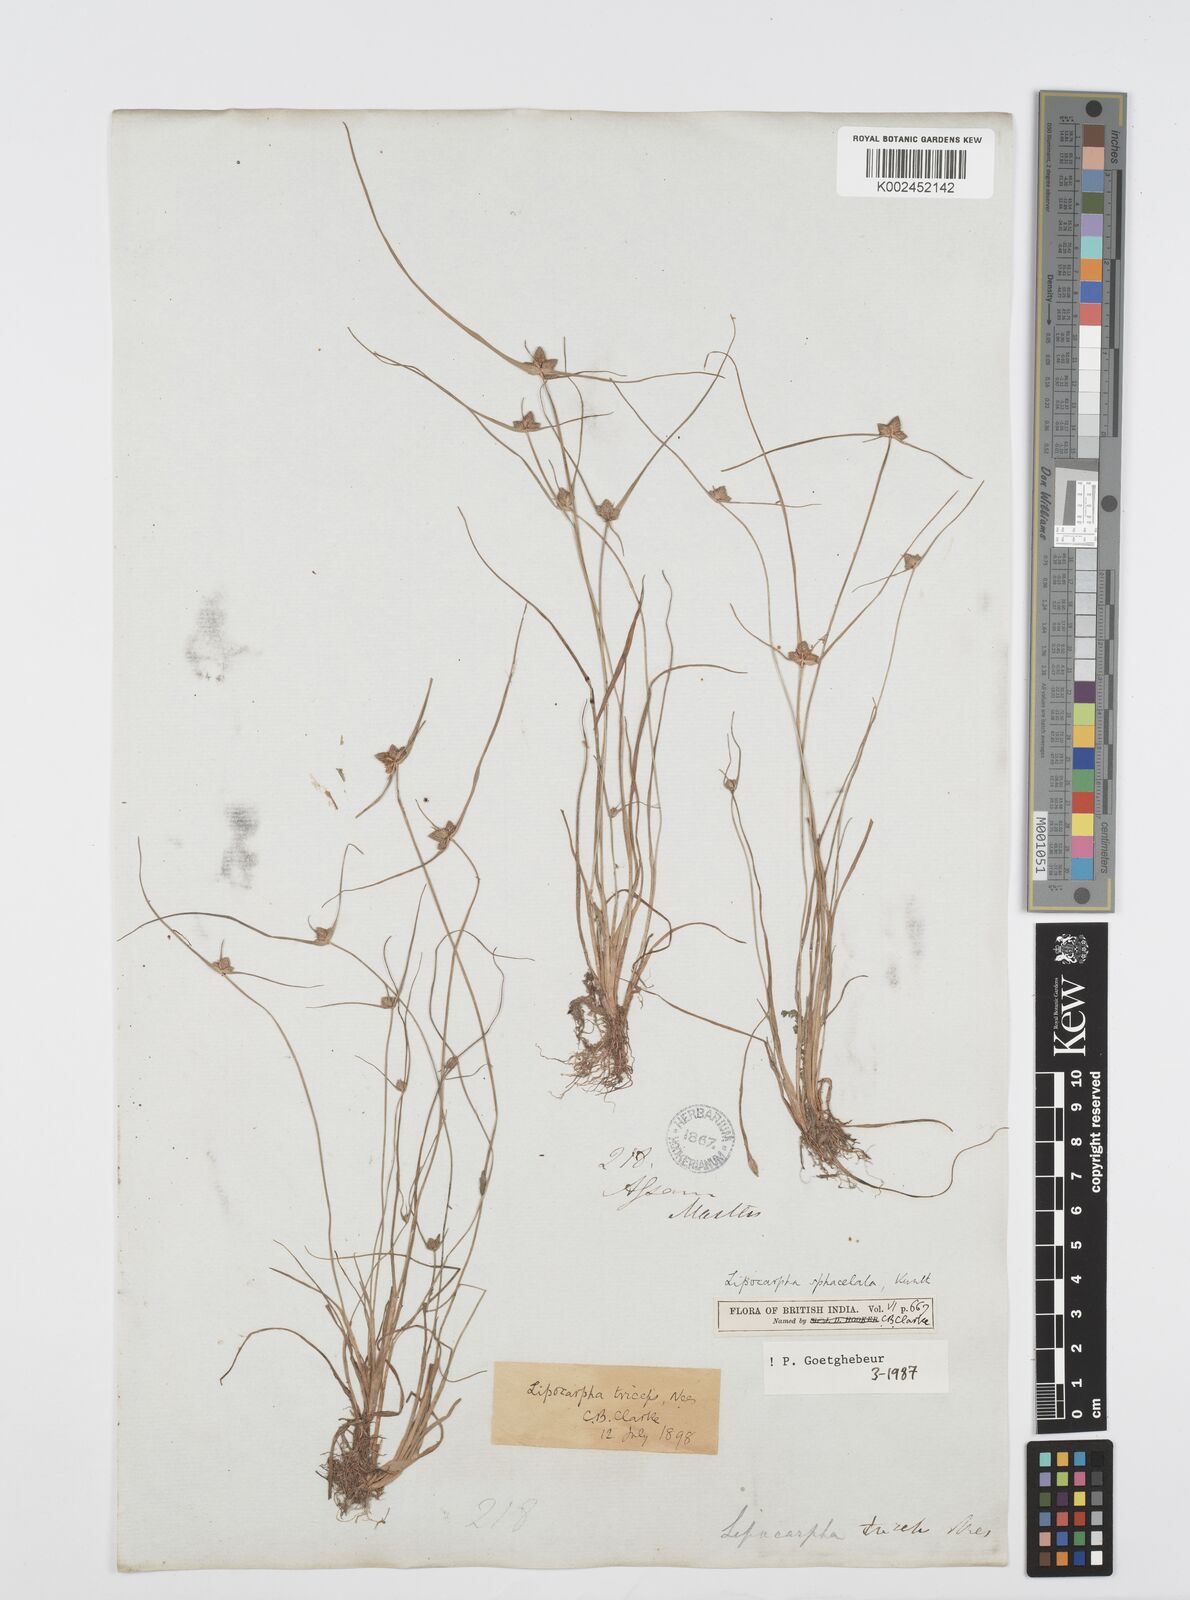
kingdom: Plantae
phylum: Tracheophyta
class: Liliopsida
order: Poales
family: Cyperaceae
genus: Cyperus
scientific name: Cyperus sphacelatus
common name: Roadside flatsedge
